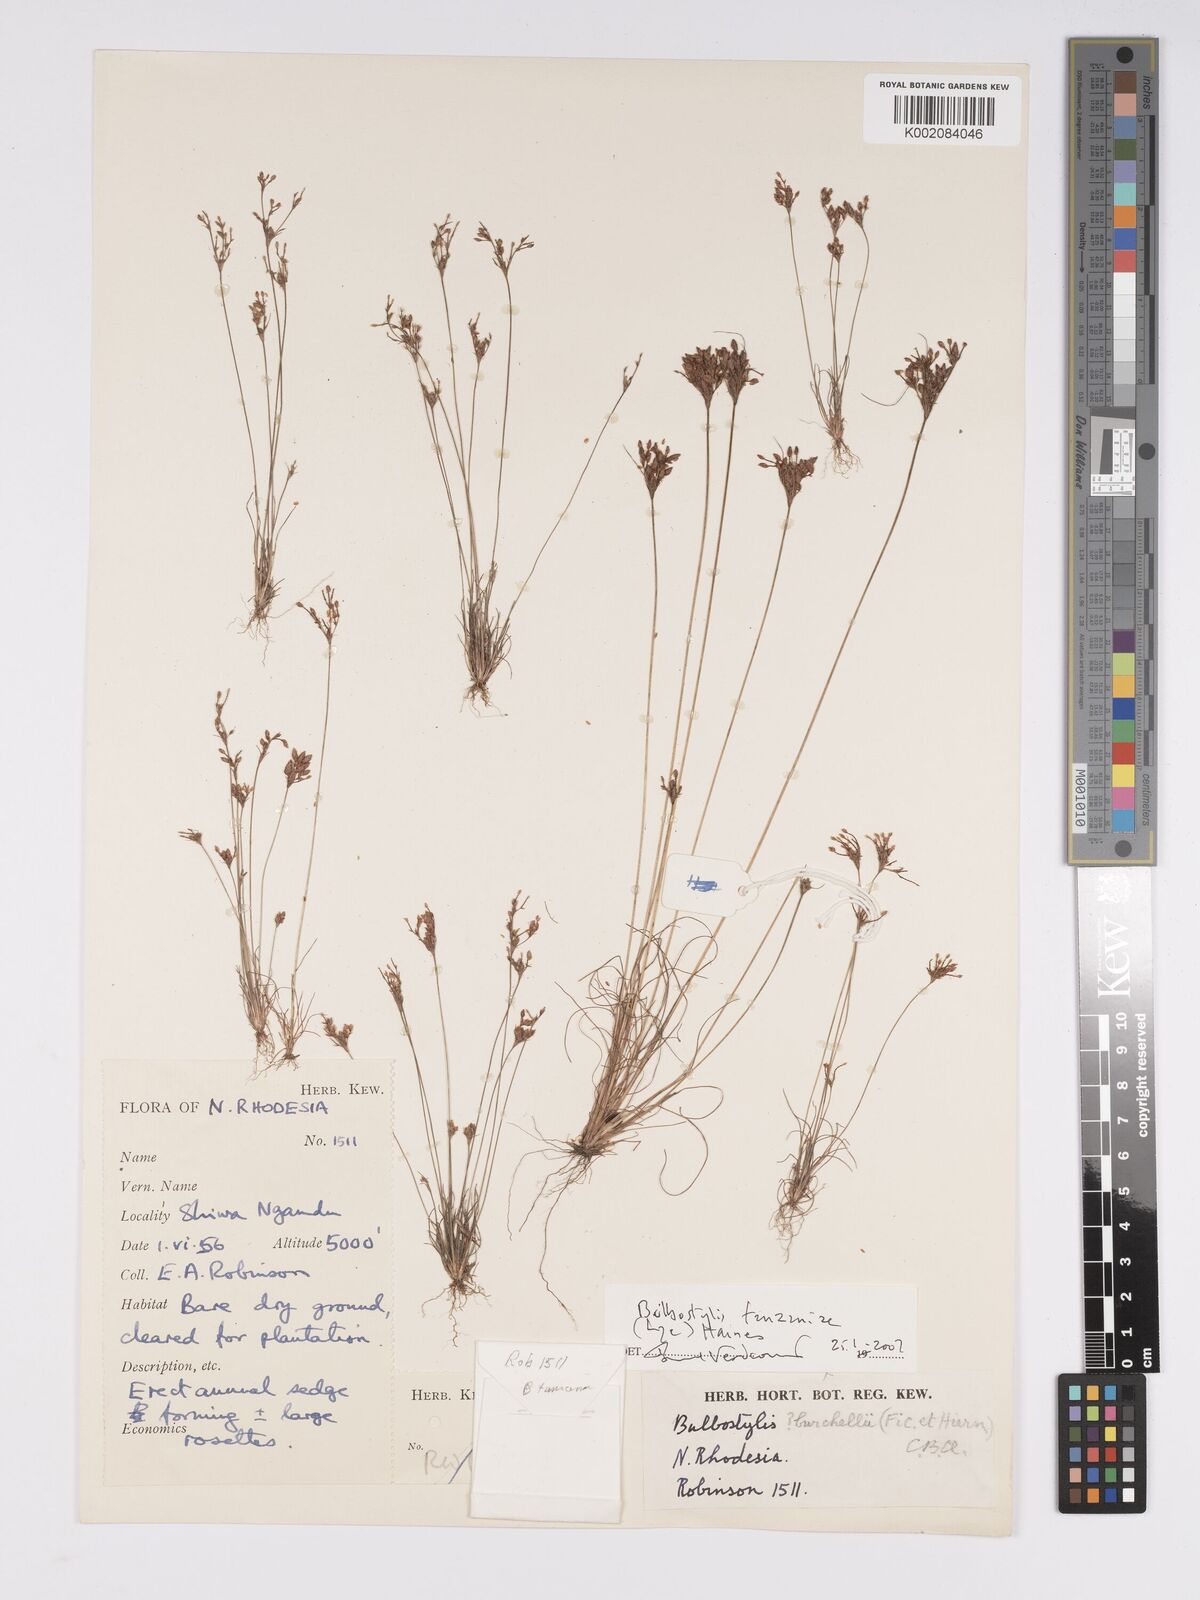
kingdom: Plantae
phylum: Tracheophyta
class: Liliopsida
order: Poales
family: Cyperaceae
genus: Bulbostylis
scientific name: Bulbostylis tanzaniae
